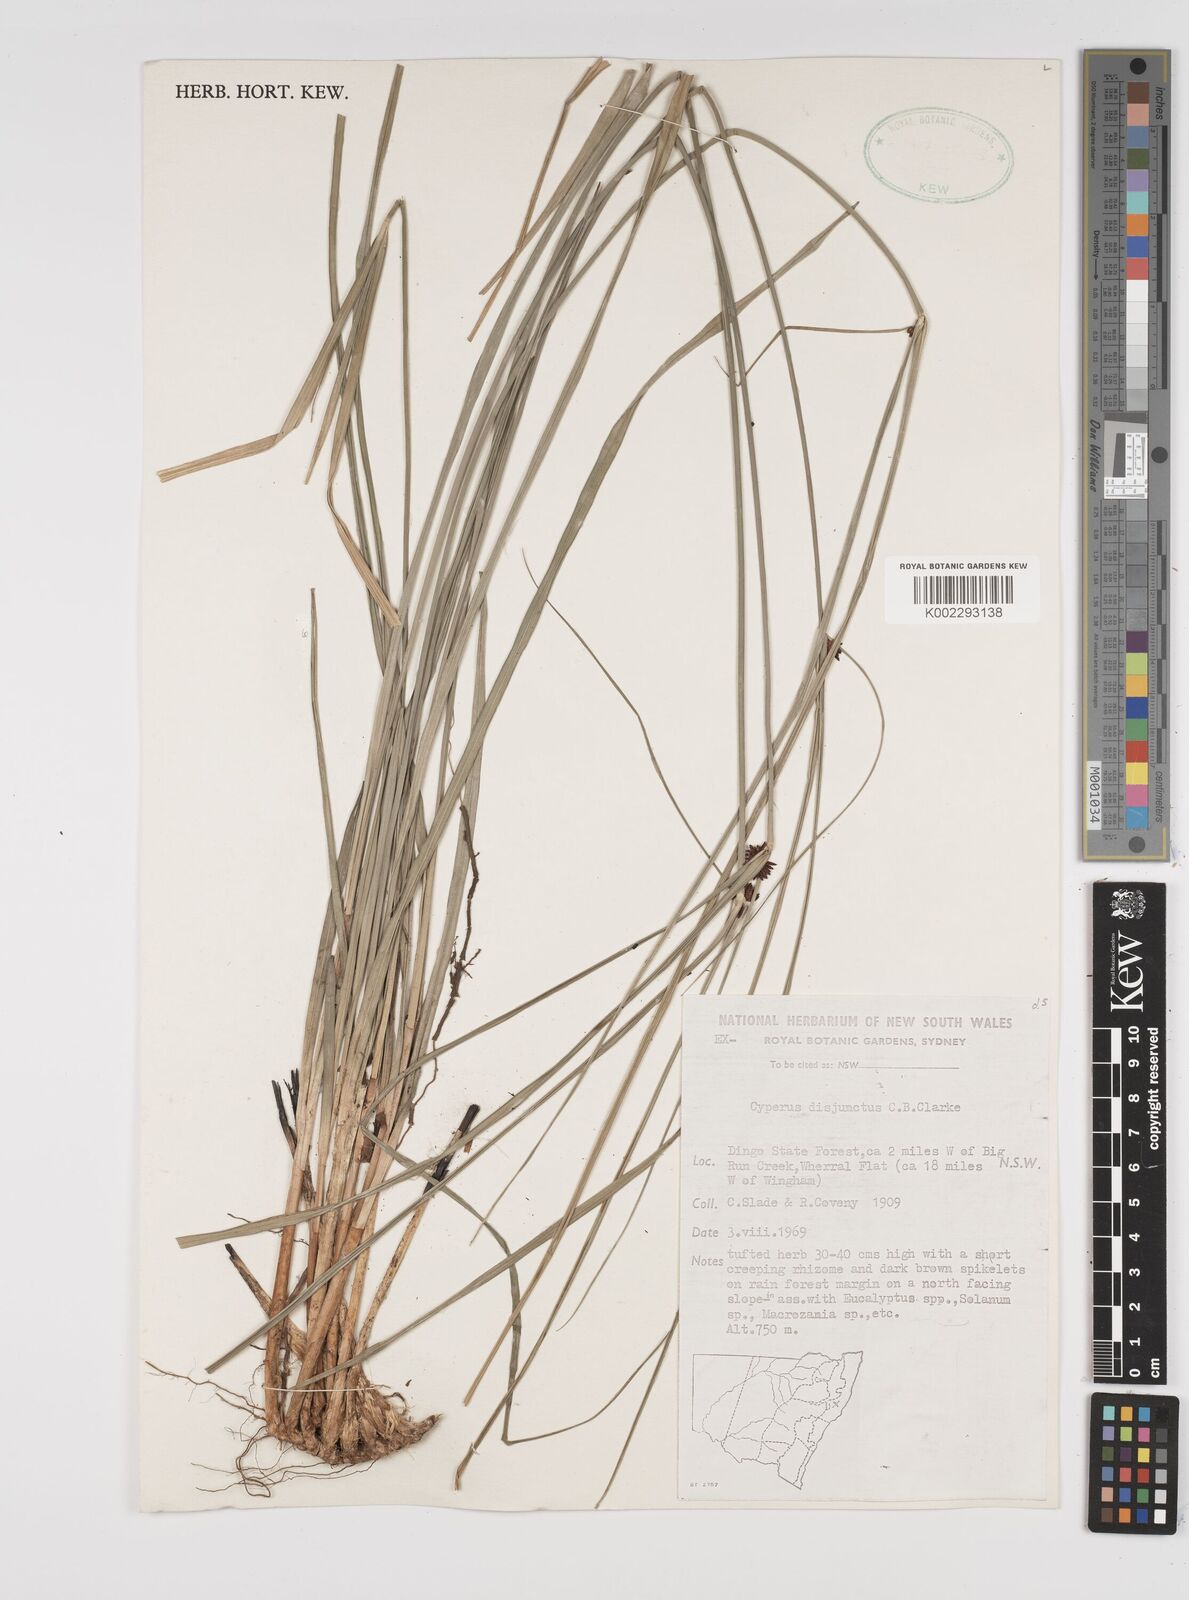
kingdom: Plantae
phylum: Tracheophyta
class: Liliopsida
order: Poales
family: Cyperaceae
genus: Cyperus
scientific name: Cyperus disjunctus
